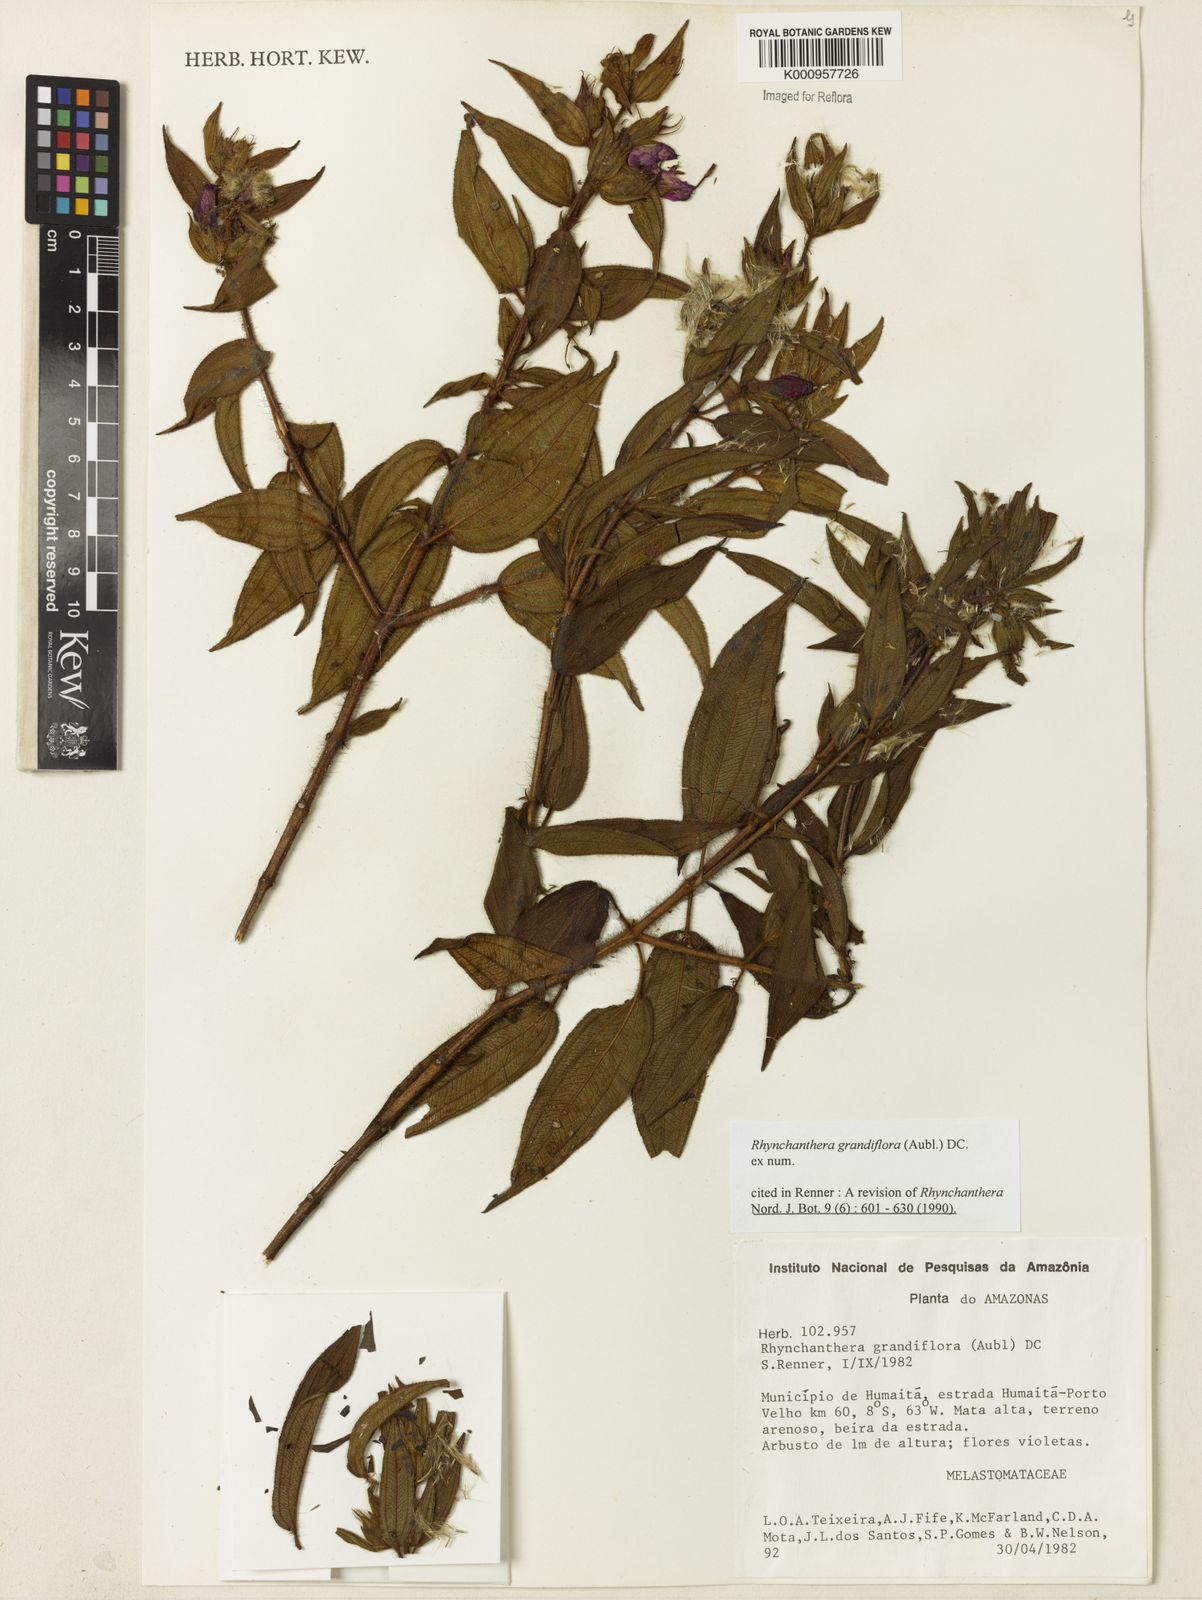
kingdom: Plantae
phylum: Tracheophyta
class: Magnoliopsida
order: Myrtales
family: Melastomataceae
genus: Rhynchanthera
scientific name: Rhynchanthera grandiflora
